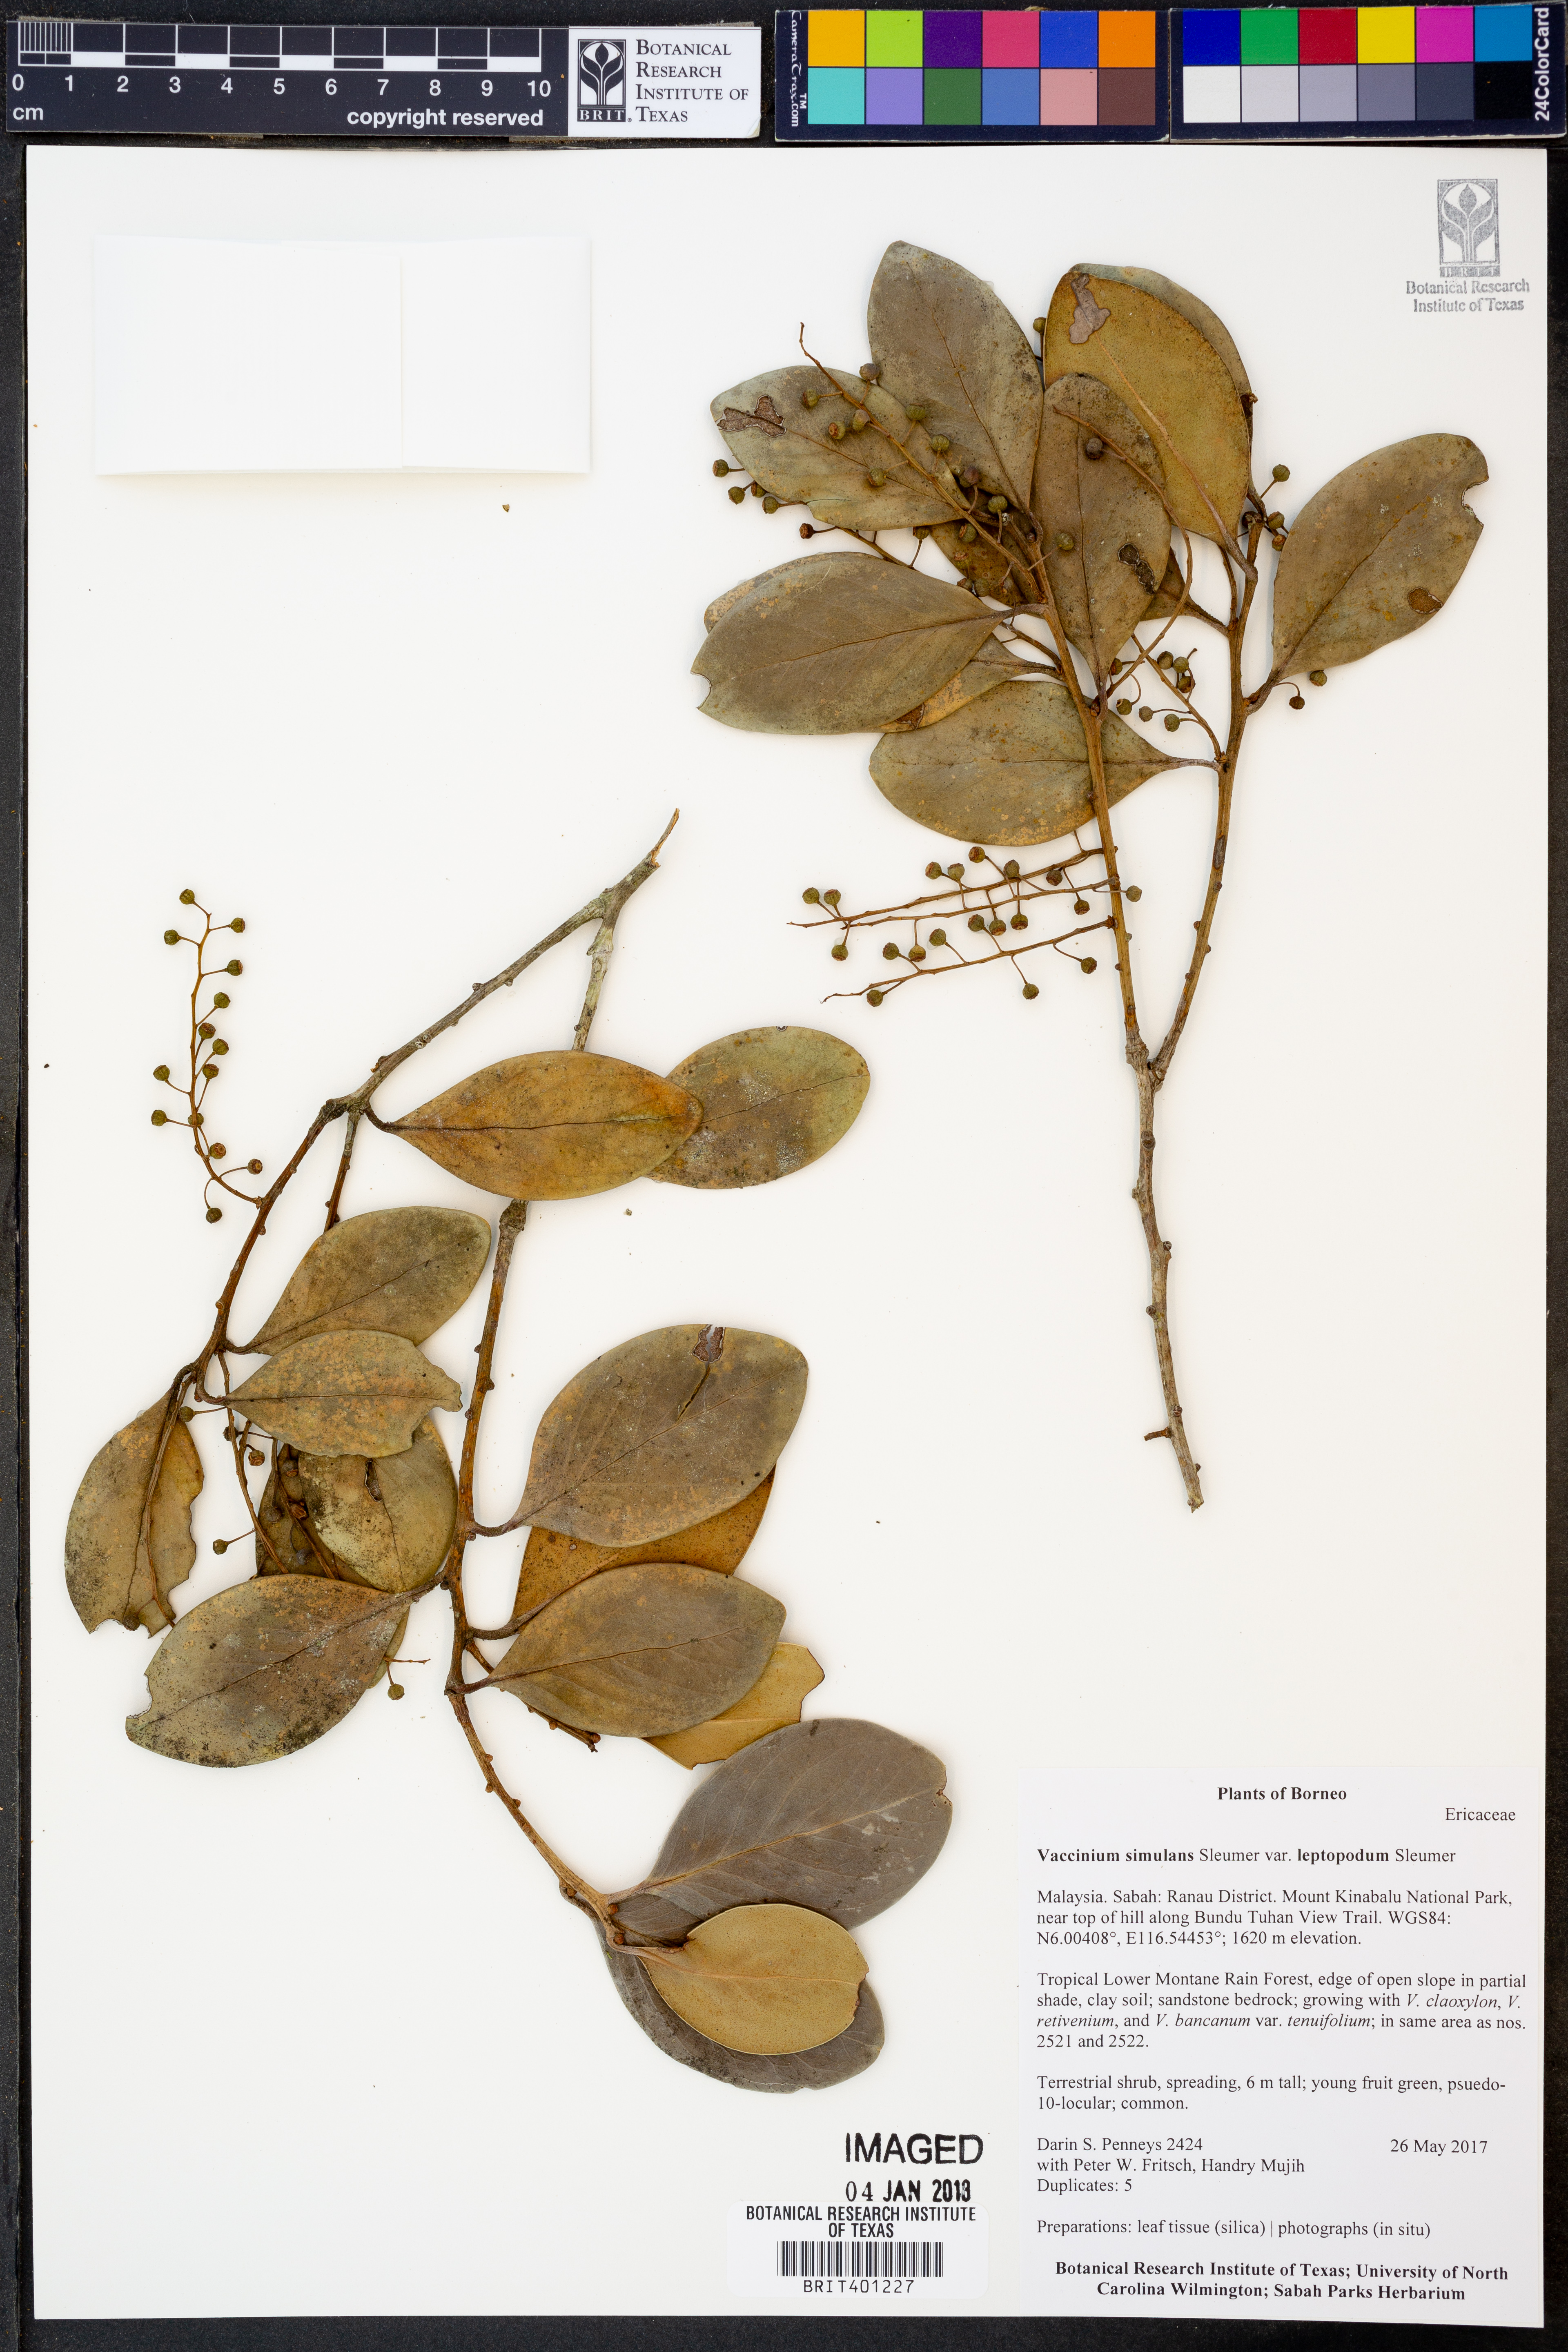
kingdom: Plantae
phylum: Tracheophyta
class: Magnoliopsida
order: Ericales
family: Ericaceae
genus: Vaccinium
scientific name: Vaccinium simulans
